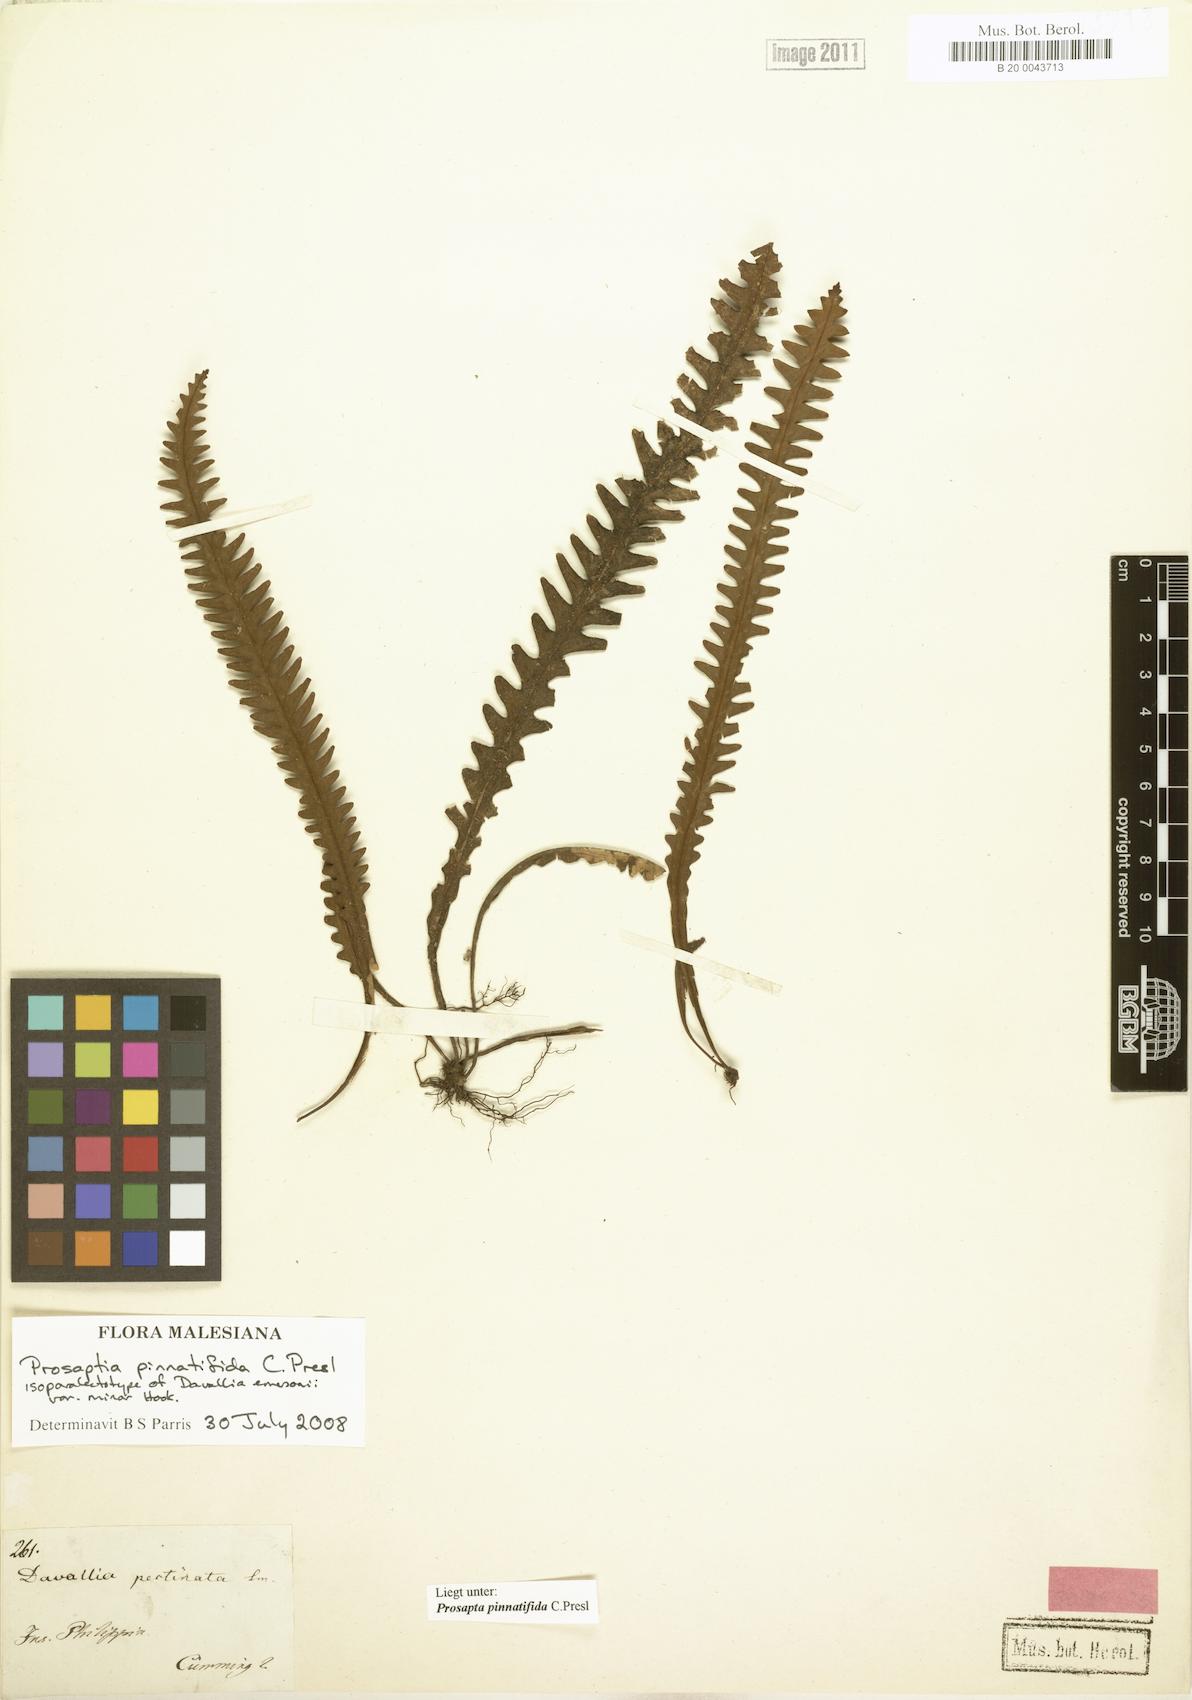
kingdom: Plantae
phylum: Tracheophyta
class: Polypodiopsida
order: Polypodiales
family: Polypodiaceae
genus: Prosaptia
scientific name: Prosaptia pinnatifida
